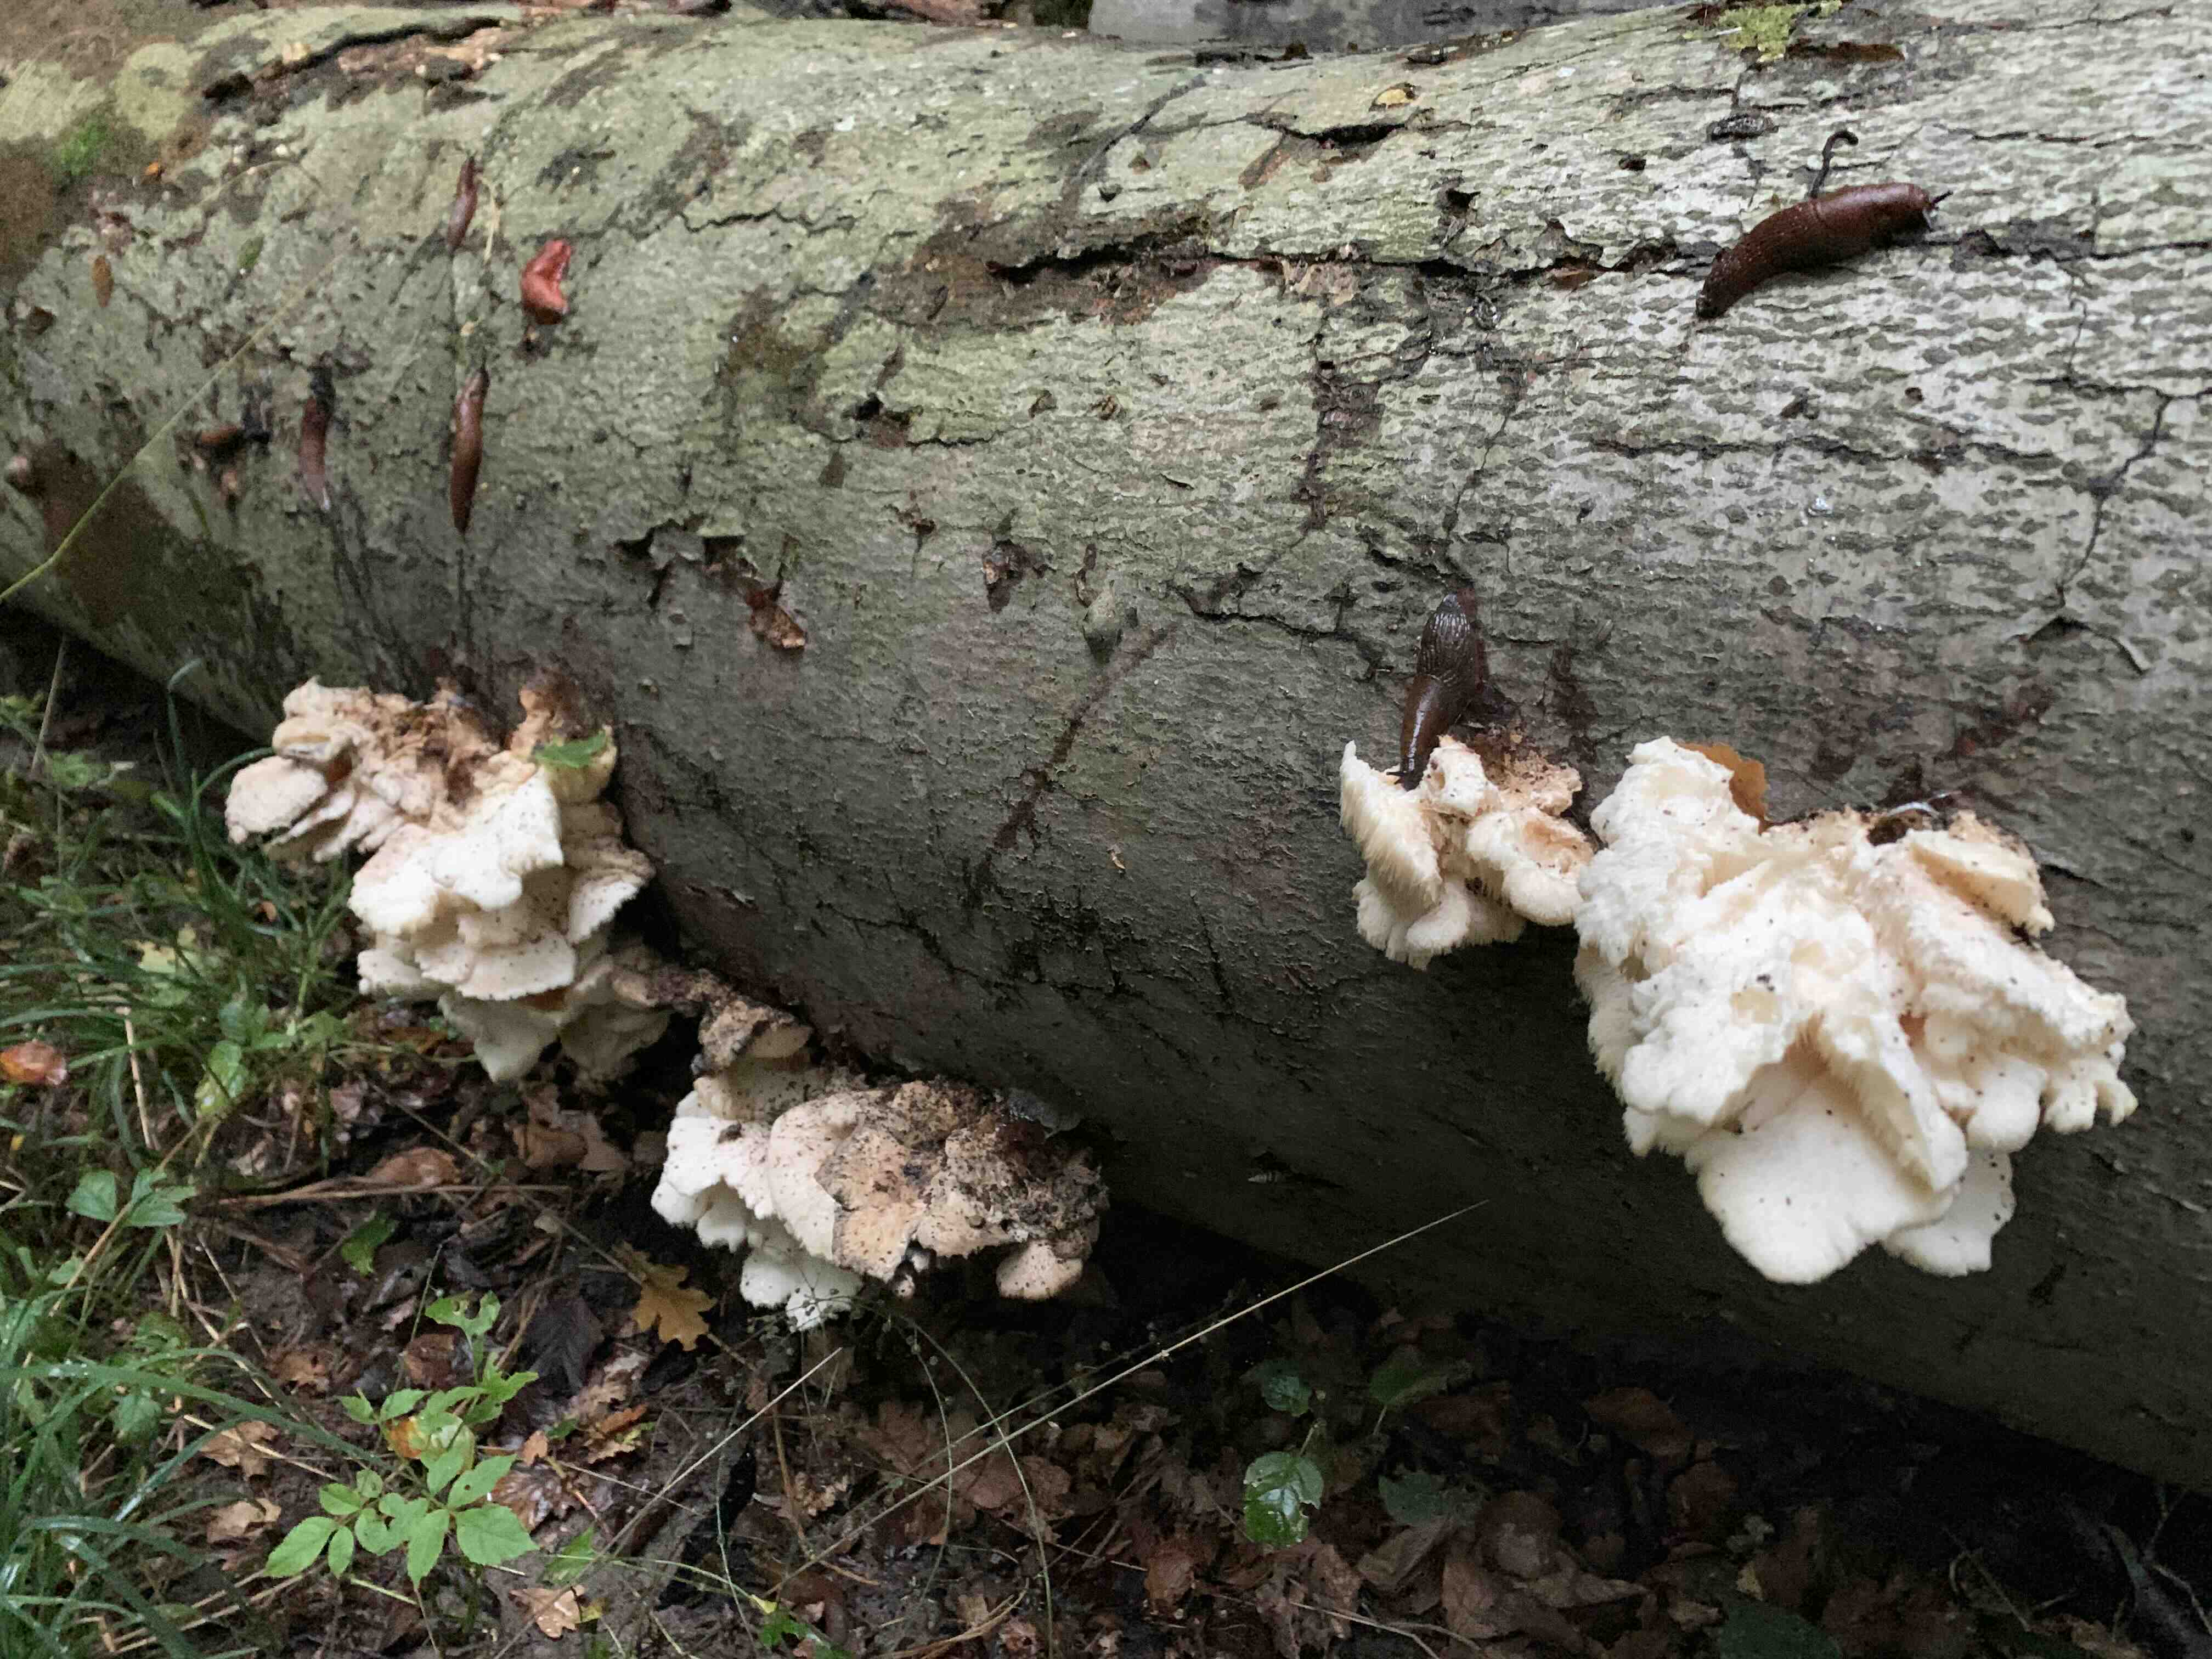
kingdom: Fungi
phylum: Basidiomycota
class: Agaricomycetes
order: Russulales
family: Hericiaceae
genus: Hericium
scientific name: Hericium cirrhatum
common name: børstepigsvamp
